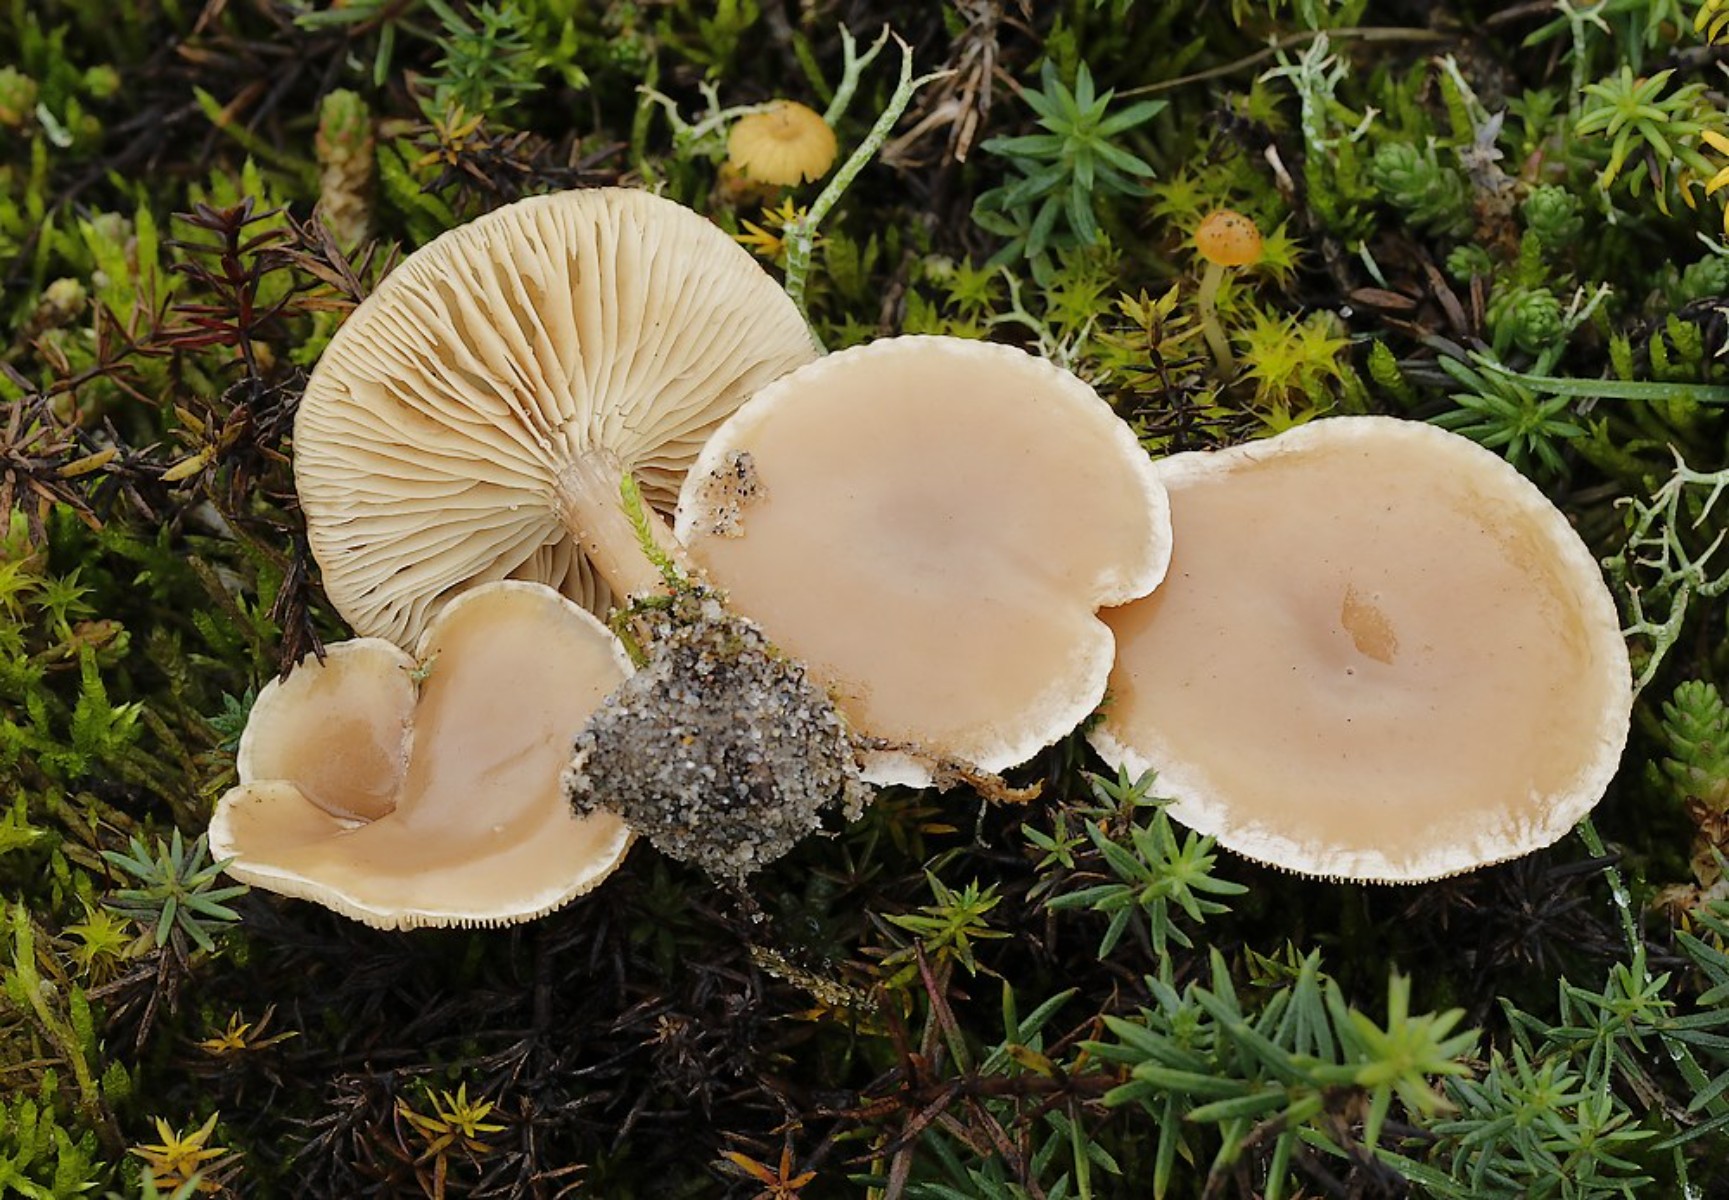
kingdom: Fungi
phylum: Basidiomycota
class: Agaricomycetes
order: Agaricales
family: Tricholomataceae
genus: Clitocybe
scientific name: Clitocybe
